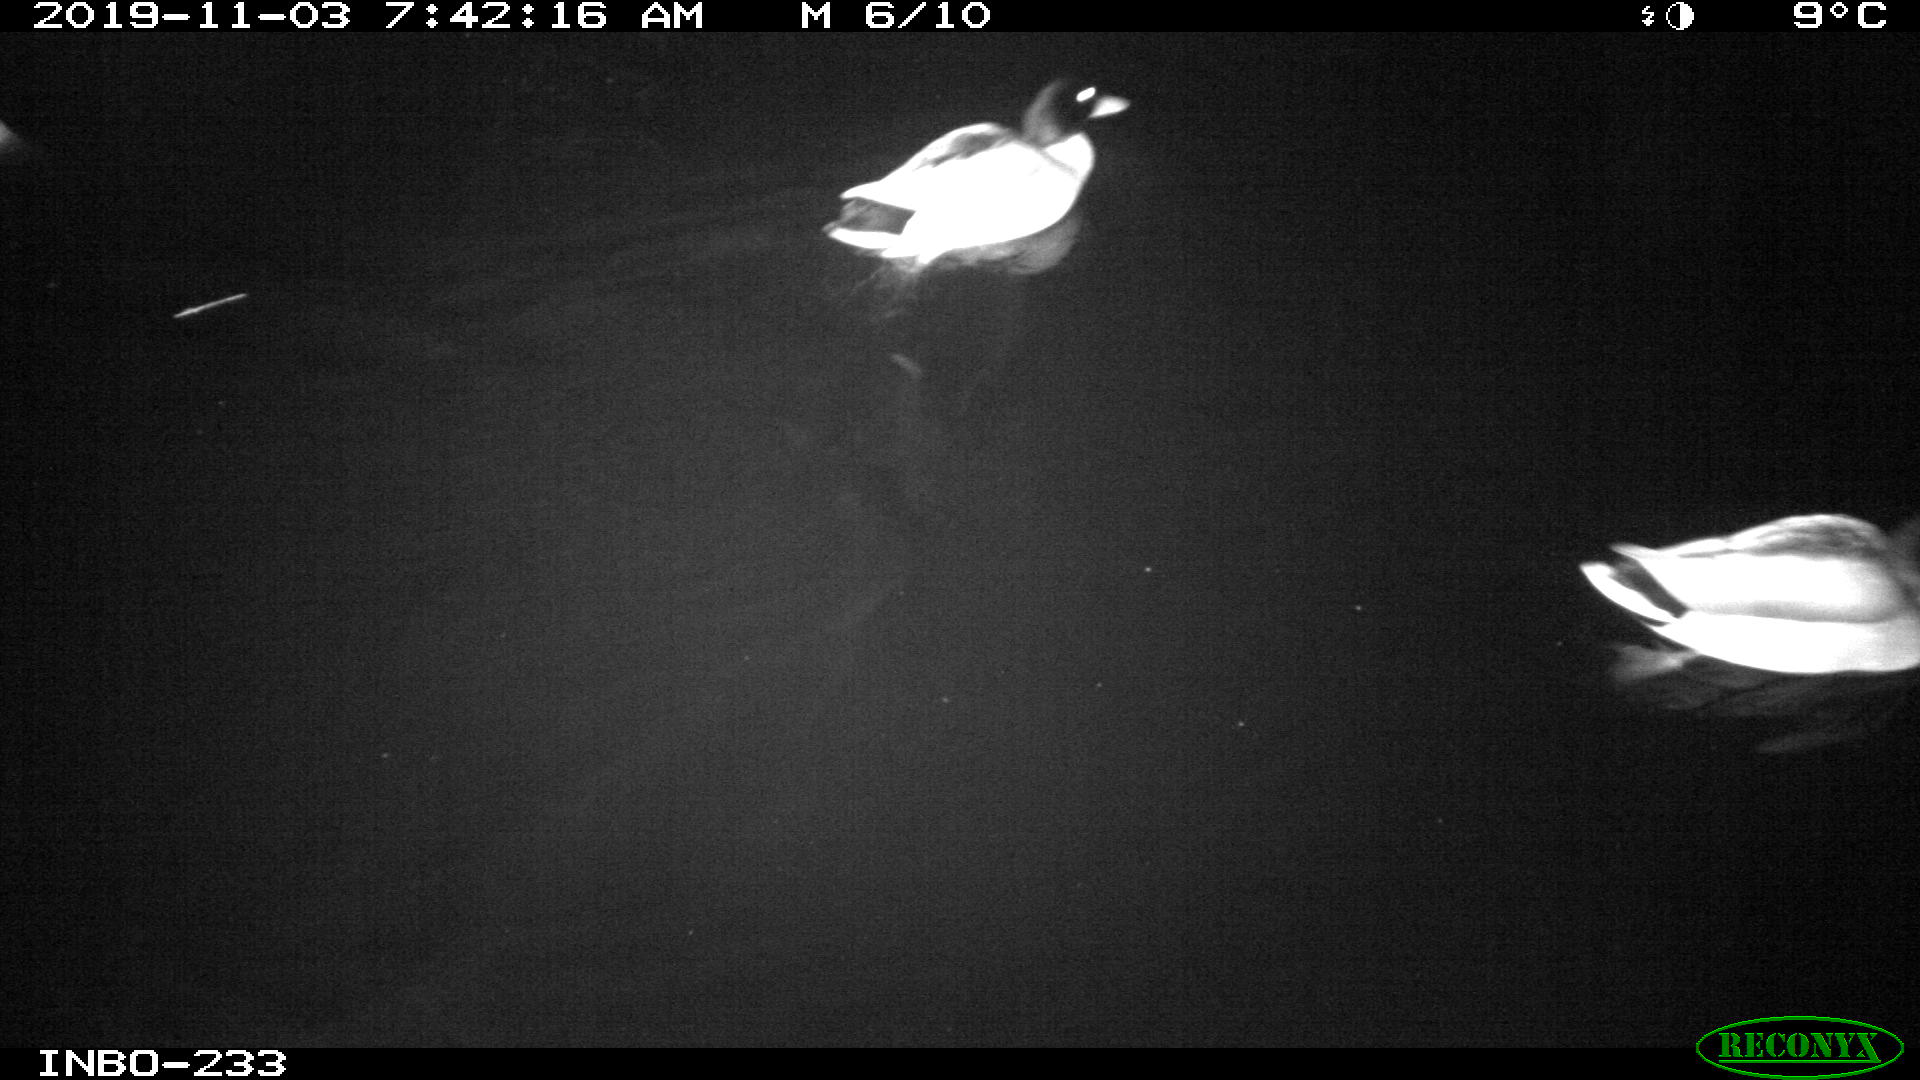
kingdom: Animalia
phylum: Chordata
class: Aves
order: Anseriformes
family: Anatidae
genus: Anas
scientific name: Anas platyrhynchos
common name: Mallard
